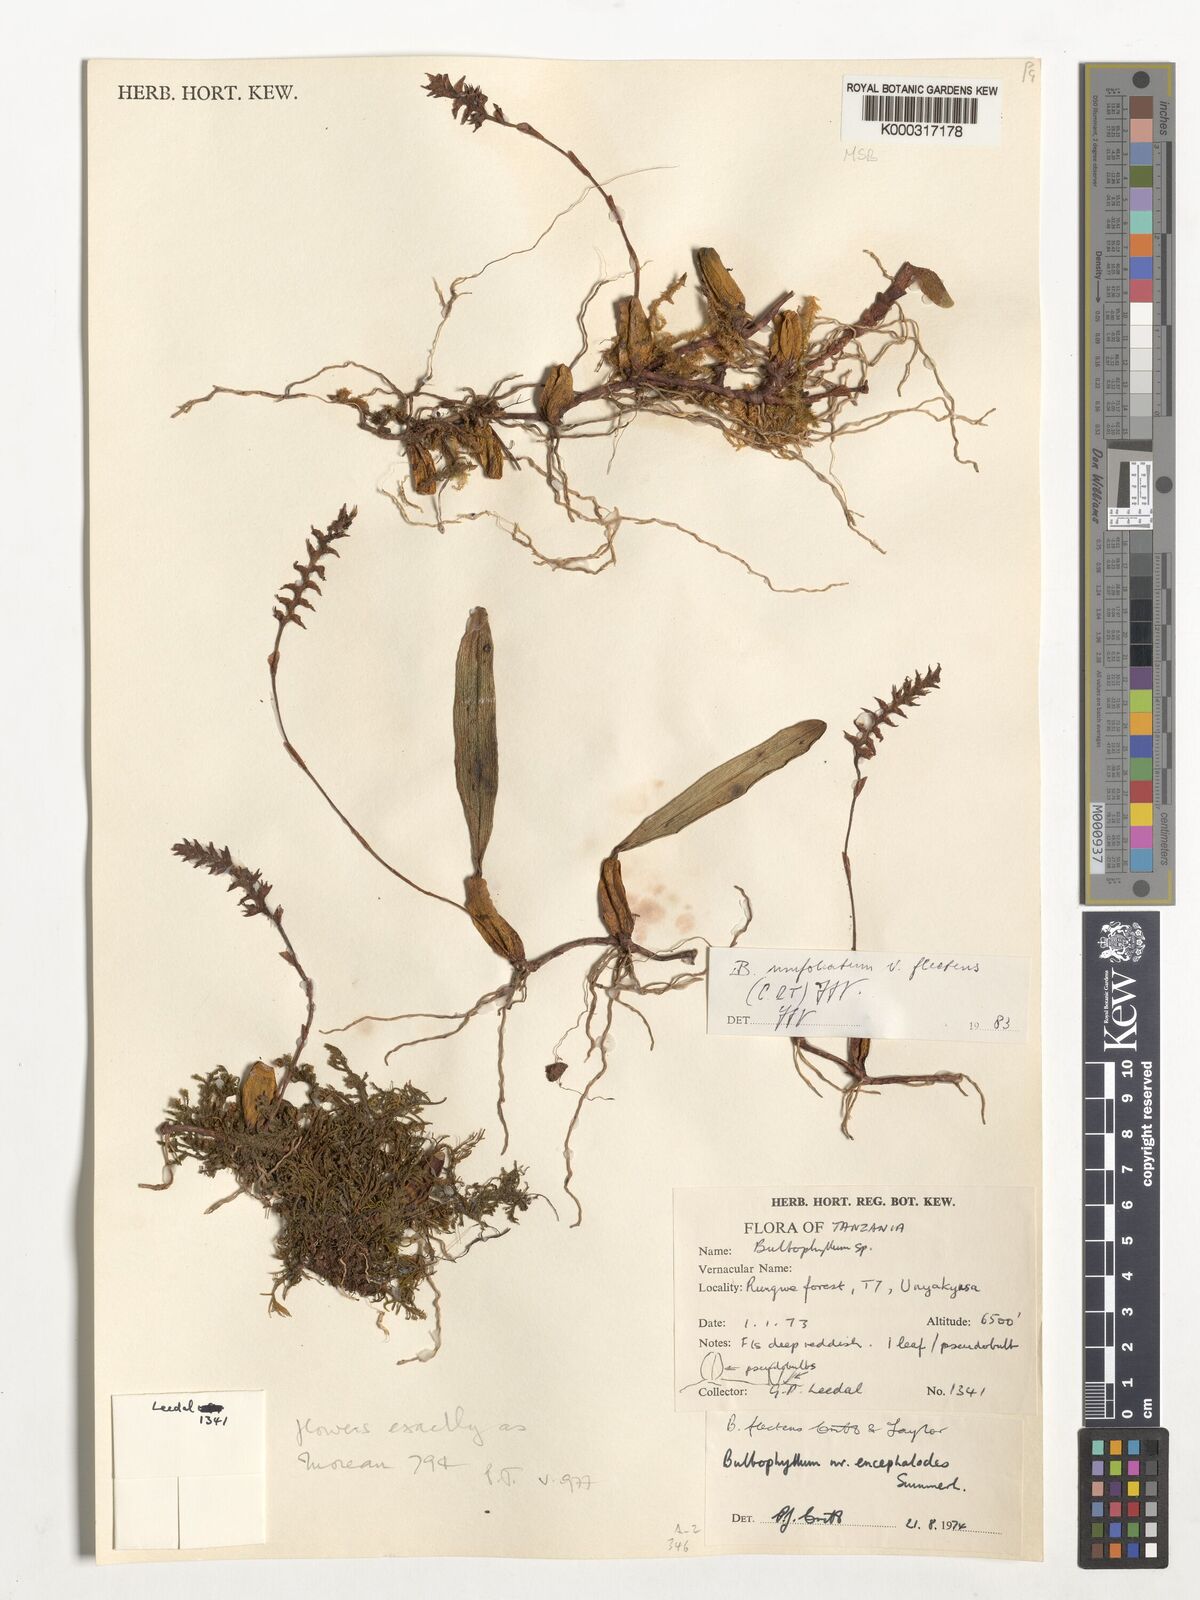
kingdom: Plantae
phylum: Tracheophyta
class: Liliopsida
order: Asparagales
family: Orchidaceae
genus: Bulbophyllum
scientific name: Bulbophyllum unifoliatum
